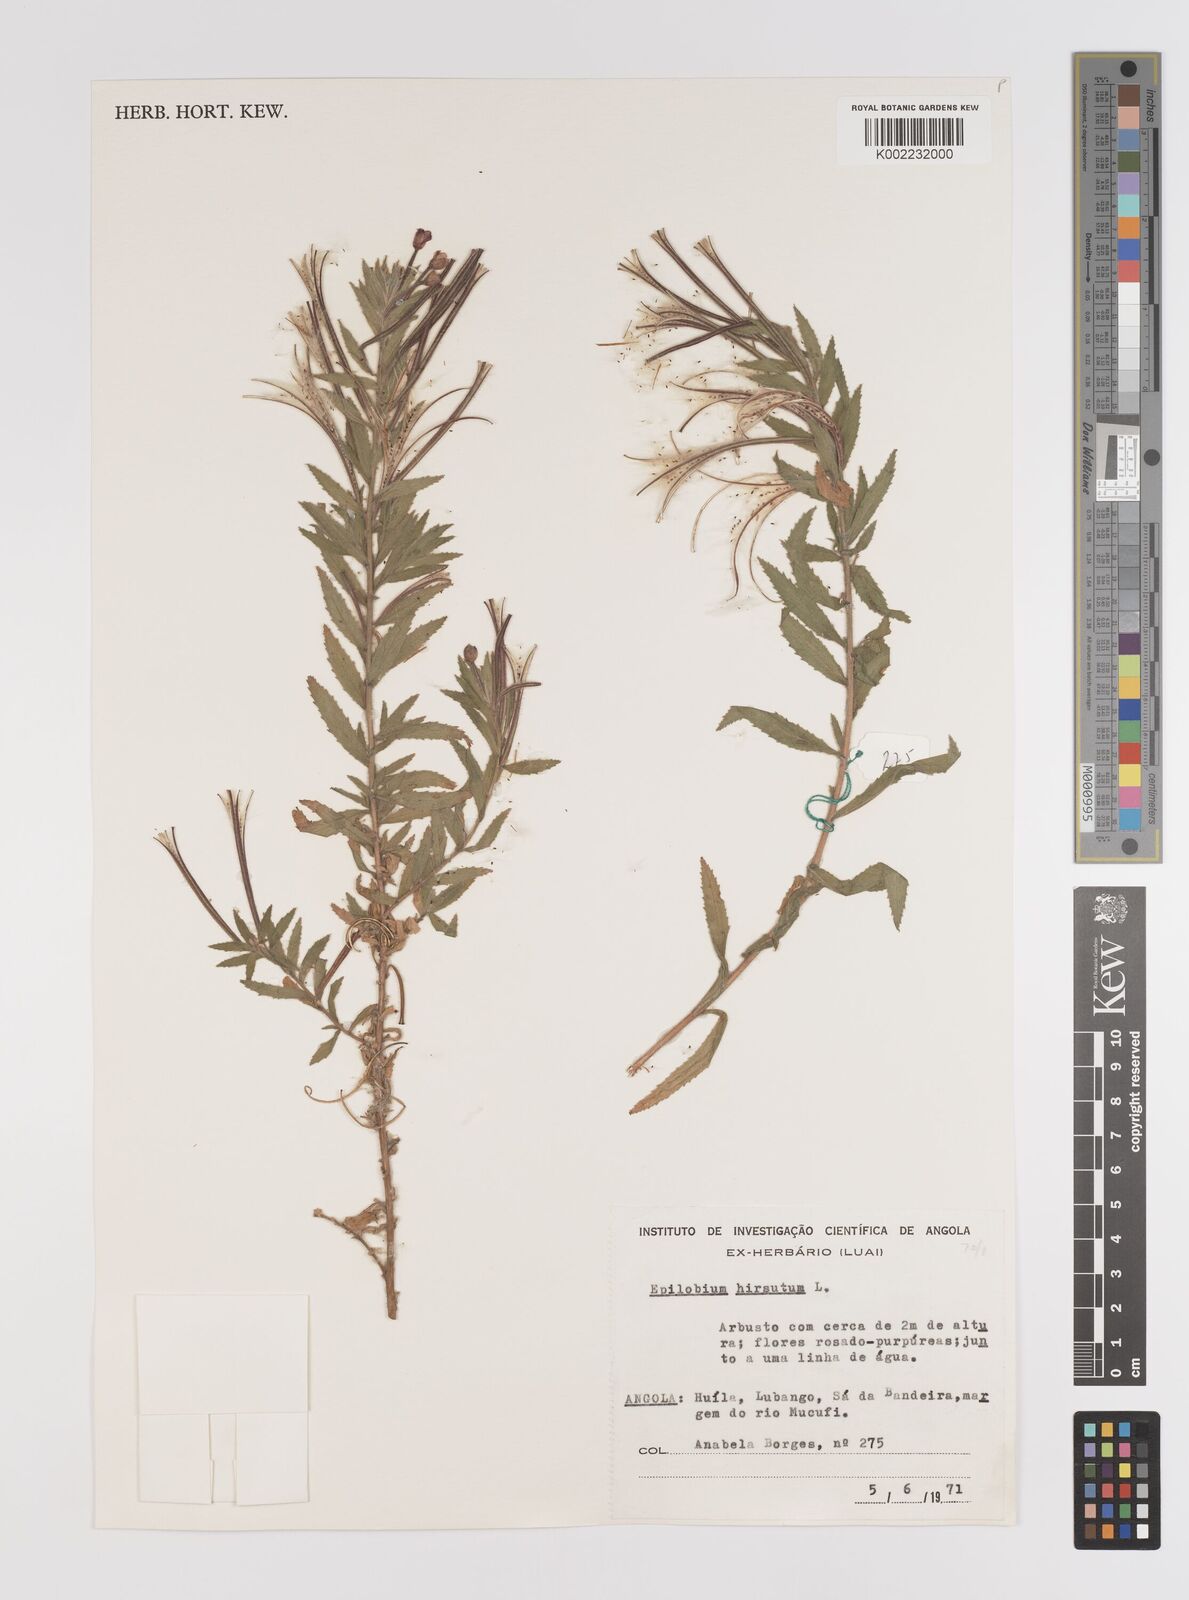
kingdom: Plantae
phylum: Tracheophyta
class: Magnoliopsida
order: Myrtales
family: Onagraceae
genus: Epilobium
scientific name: Epilobium hirsutum
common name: Great willowherb
